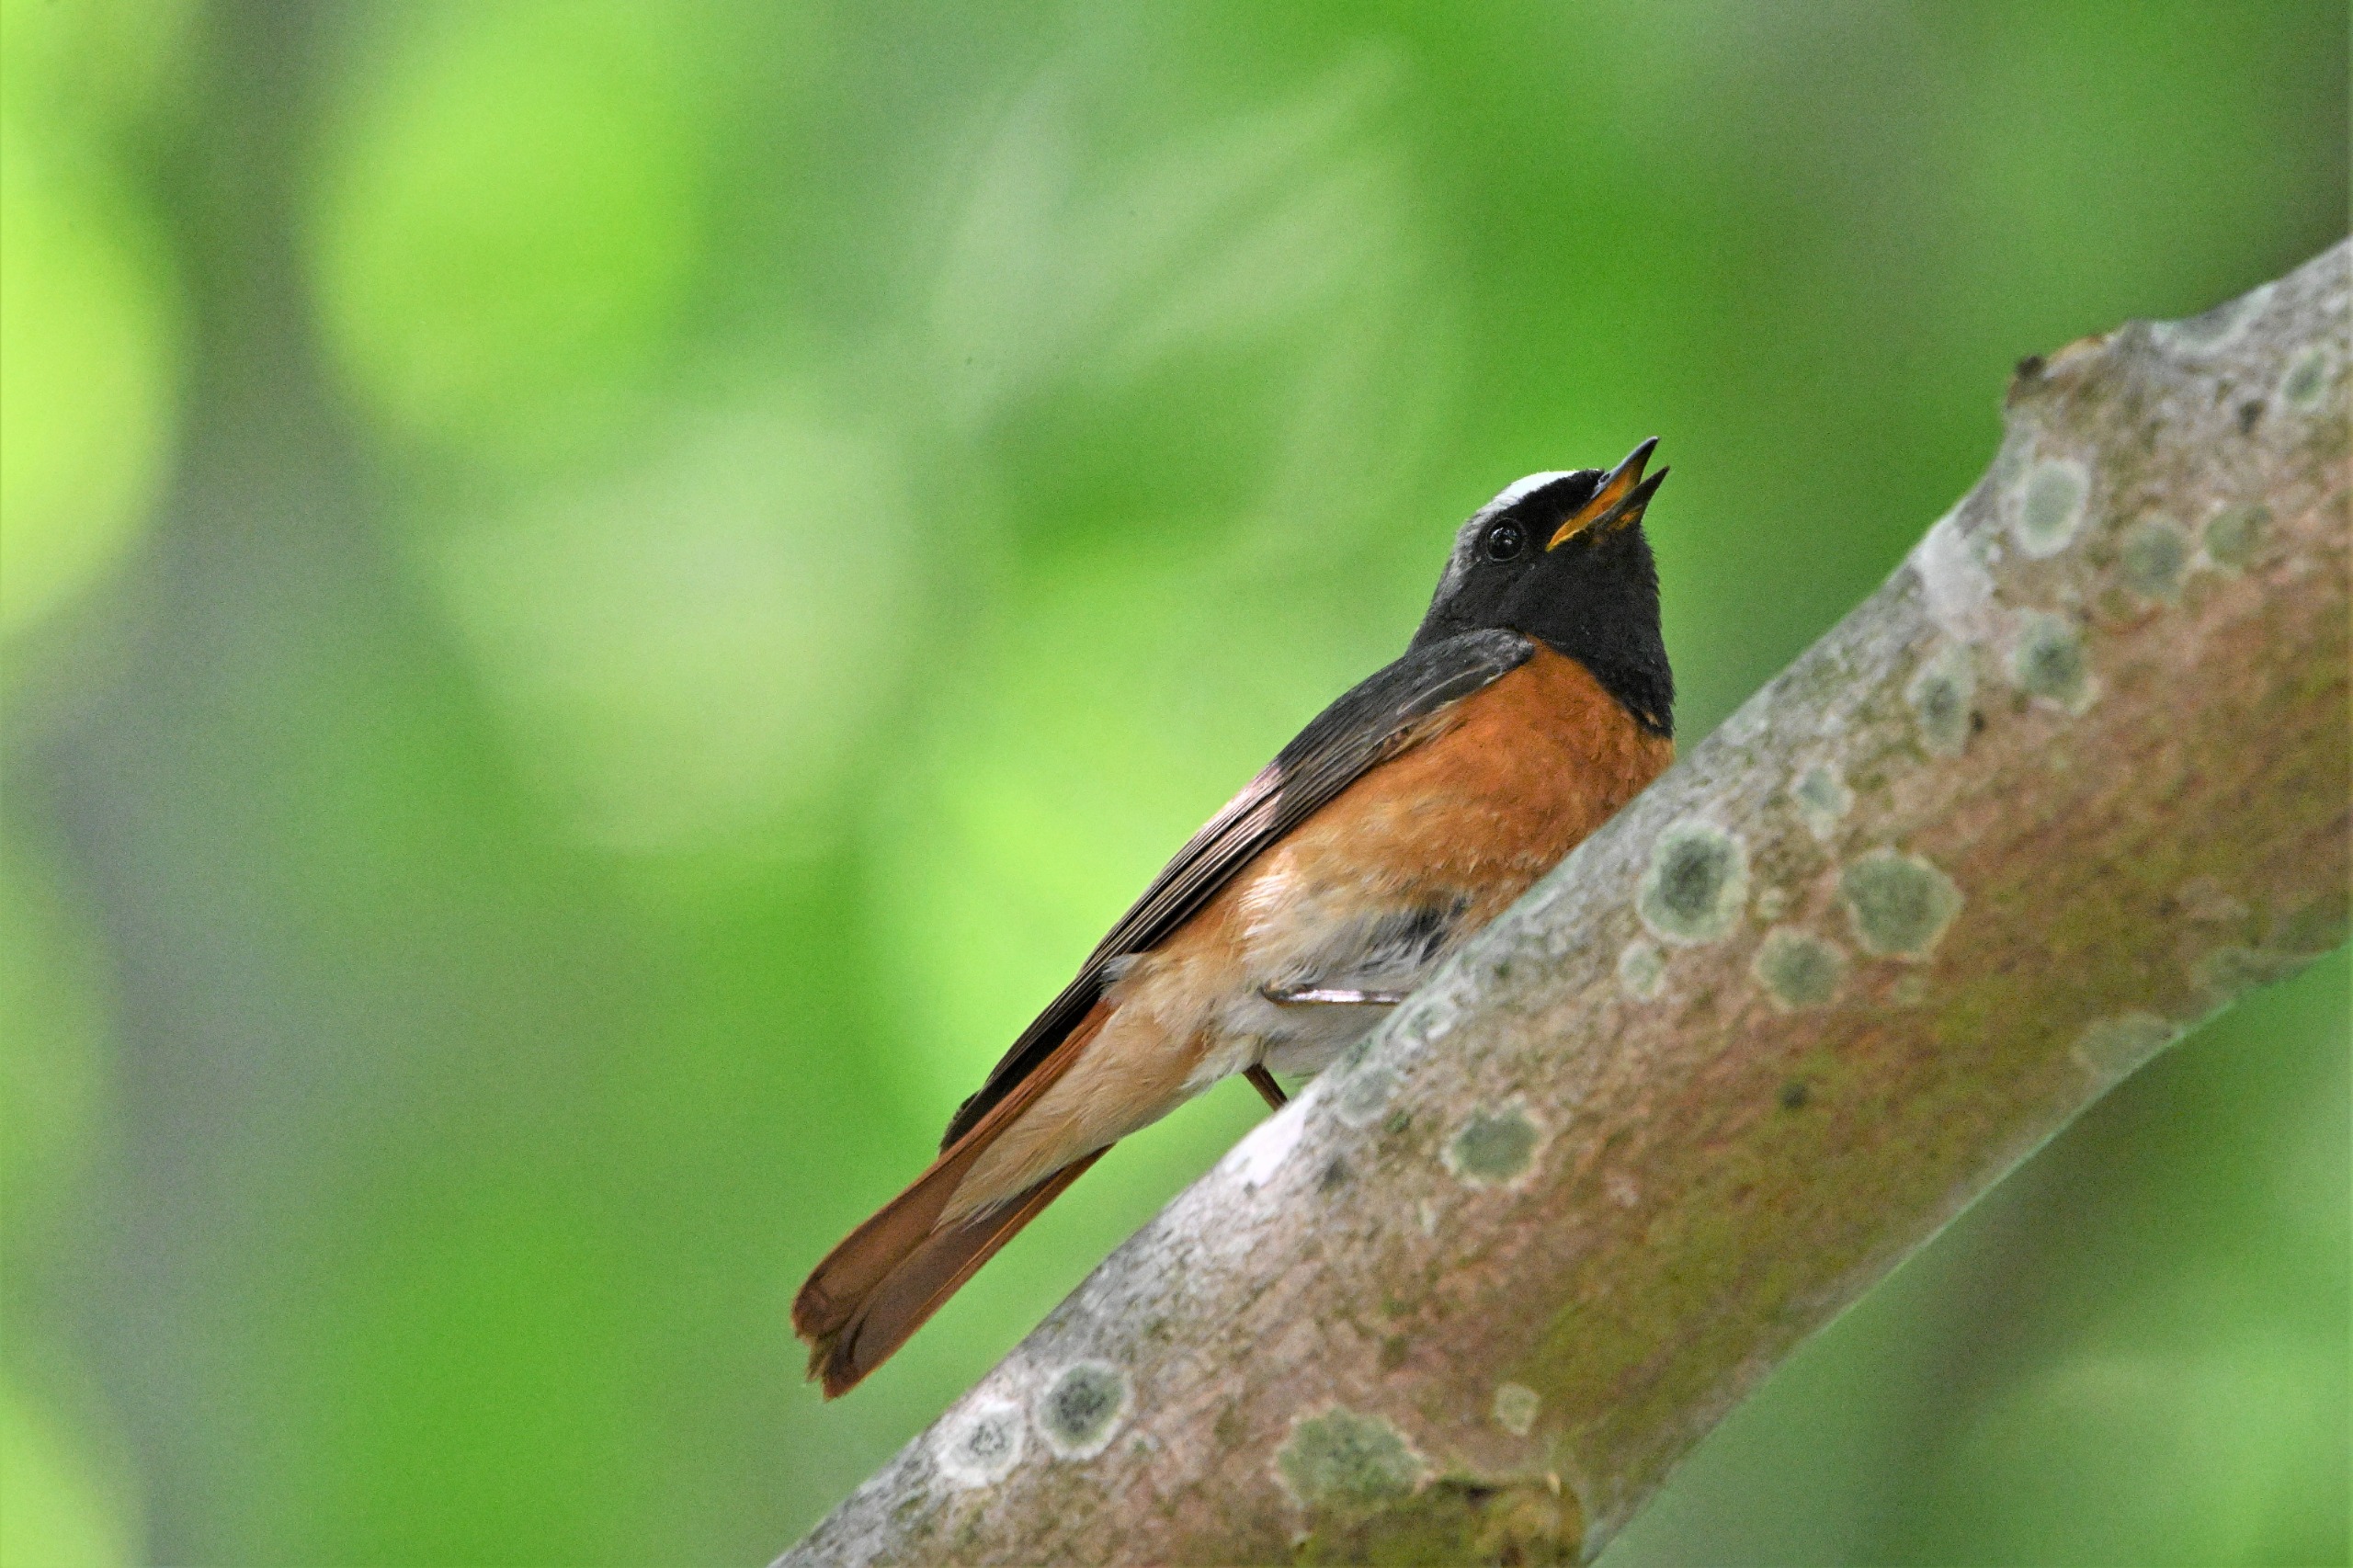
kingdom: Animalia
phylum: Chordata
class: Aves
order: Passeriformes
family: Muscicapidae
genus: Phoenicurus
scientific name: Phoenicurus phoenicurus
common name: Rødstjert
